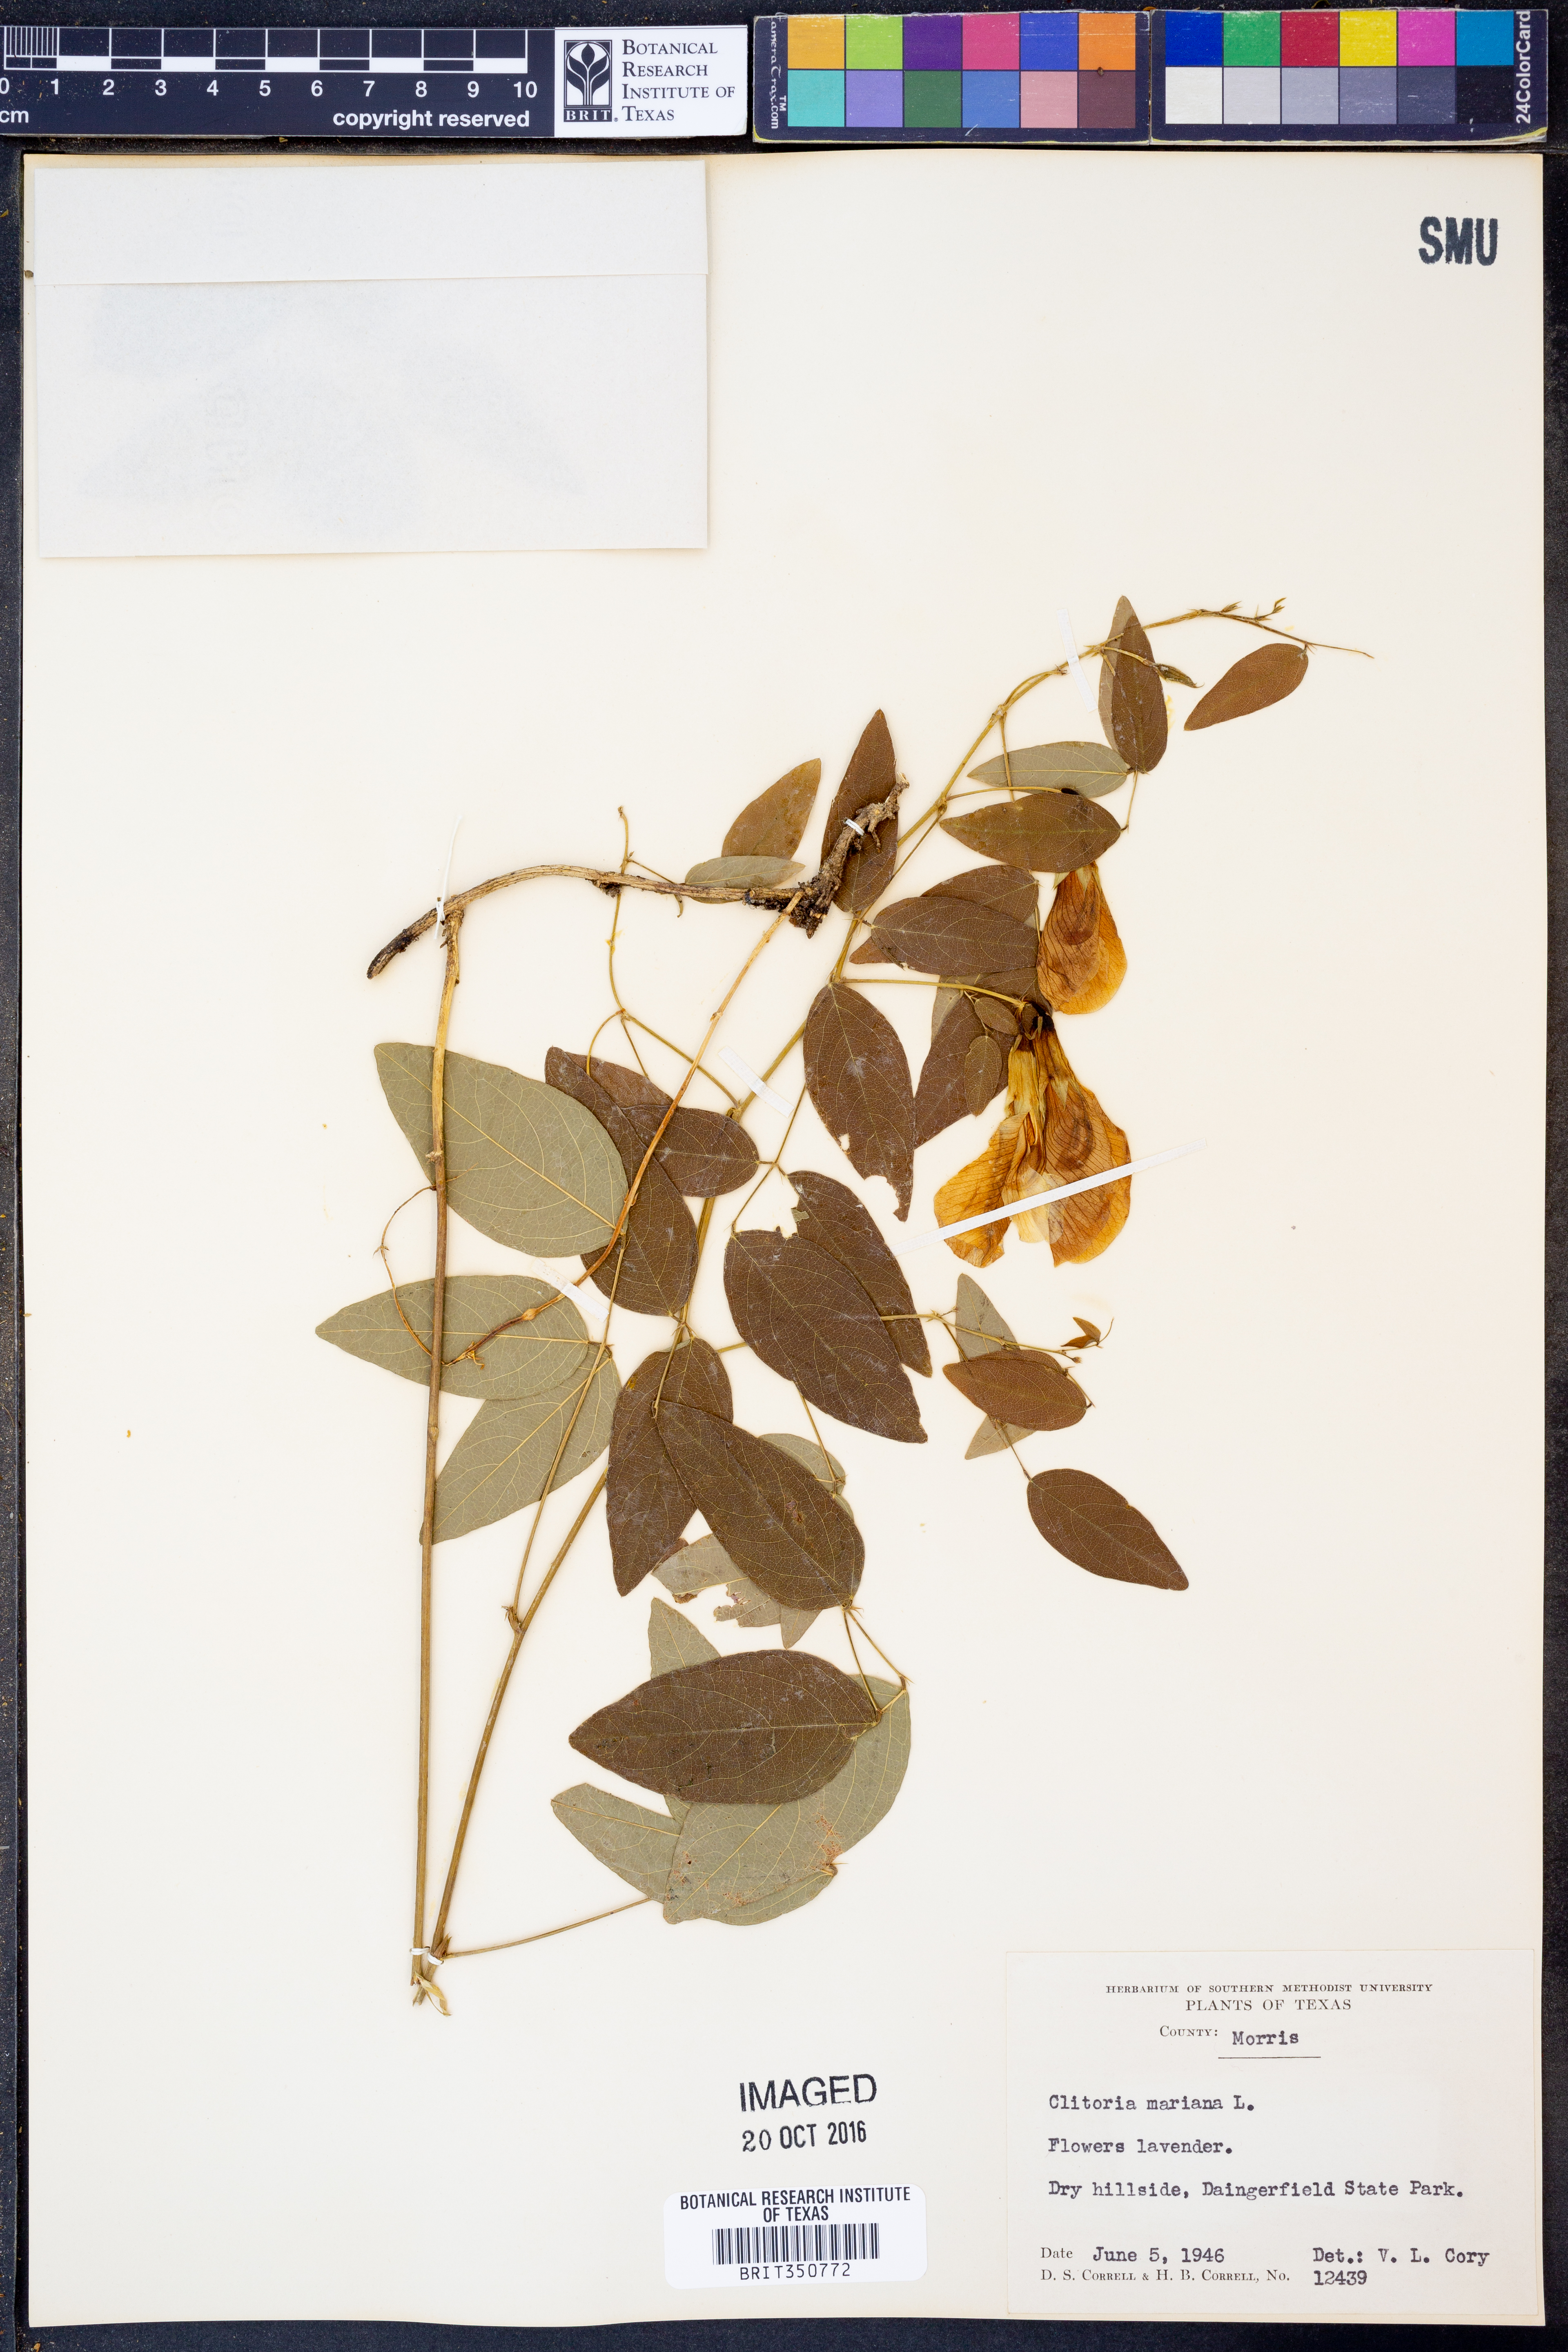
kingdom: Plantae
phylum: Tracheophyta
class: Magnoliopsida
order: Fabales
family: Fabaceae
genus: Clitoria
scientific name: Clitoria mariana
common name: Butterfly-pea
